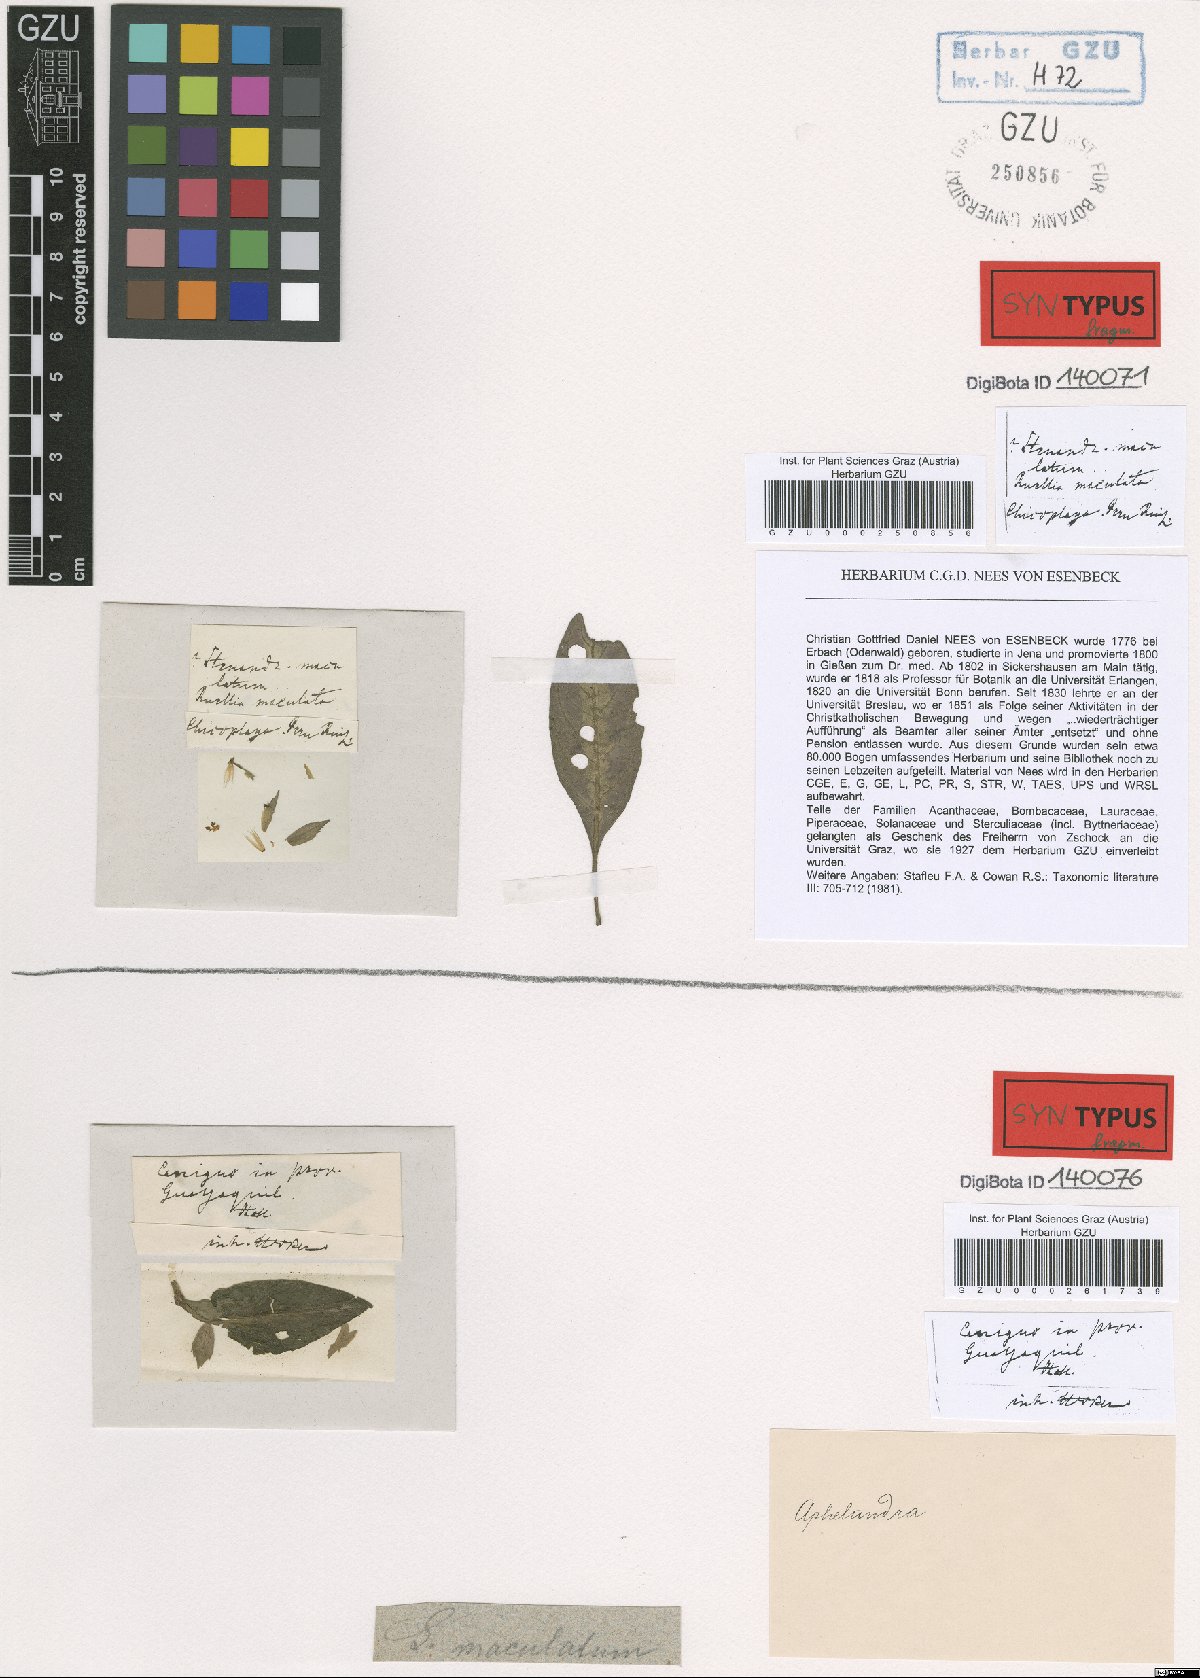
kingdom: Plantae
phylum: Tracheophyta
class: Magnoliopsida
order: Lamiales
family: Acanthaceae
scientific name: Acanthaceae
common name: Acanthaceae
